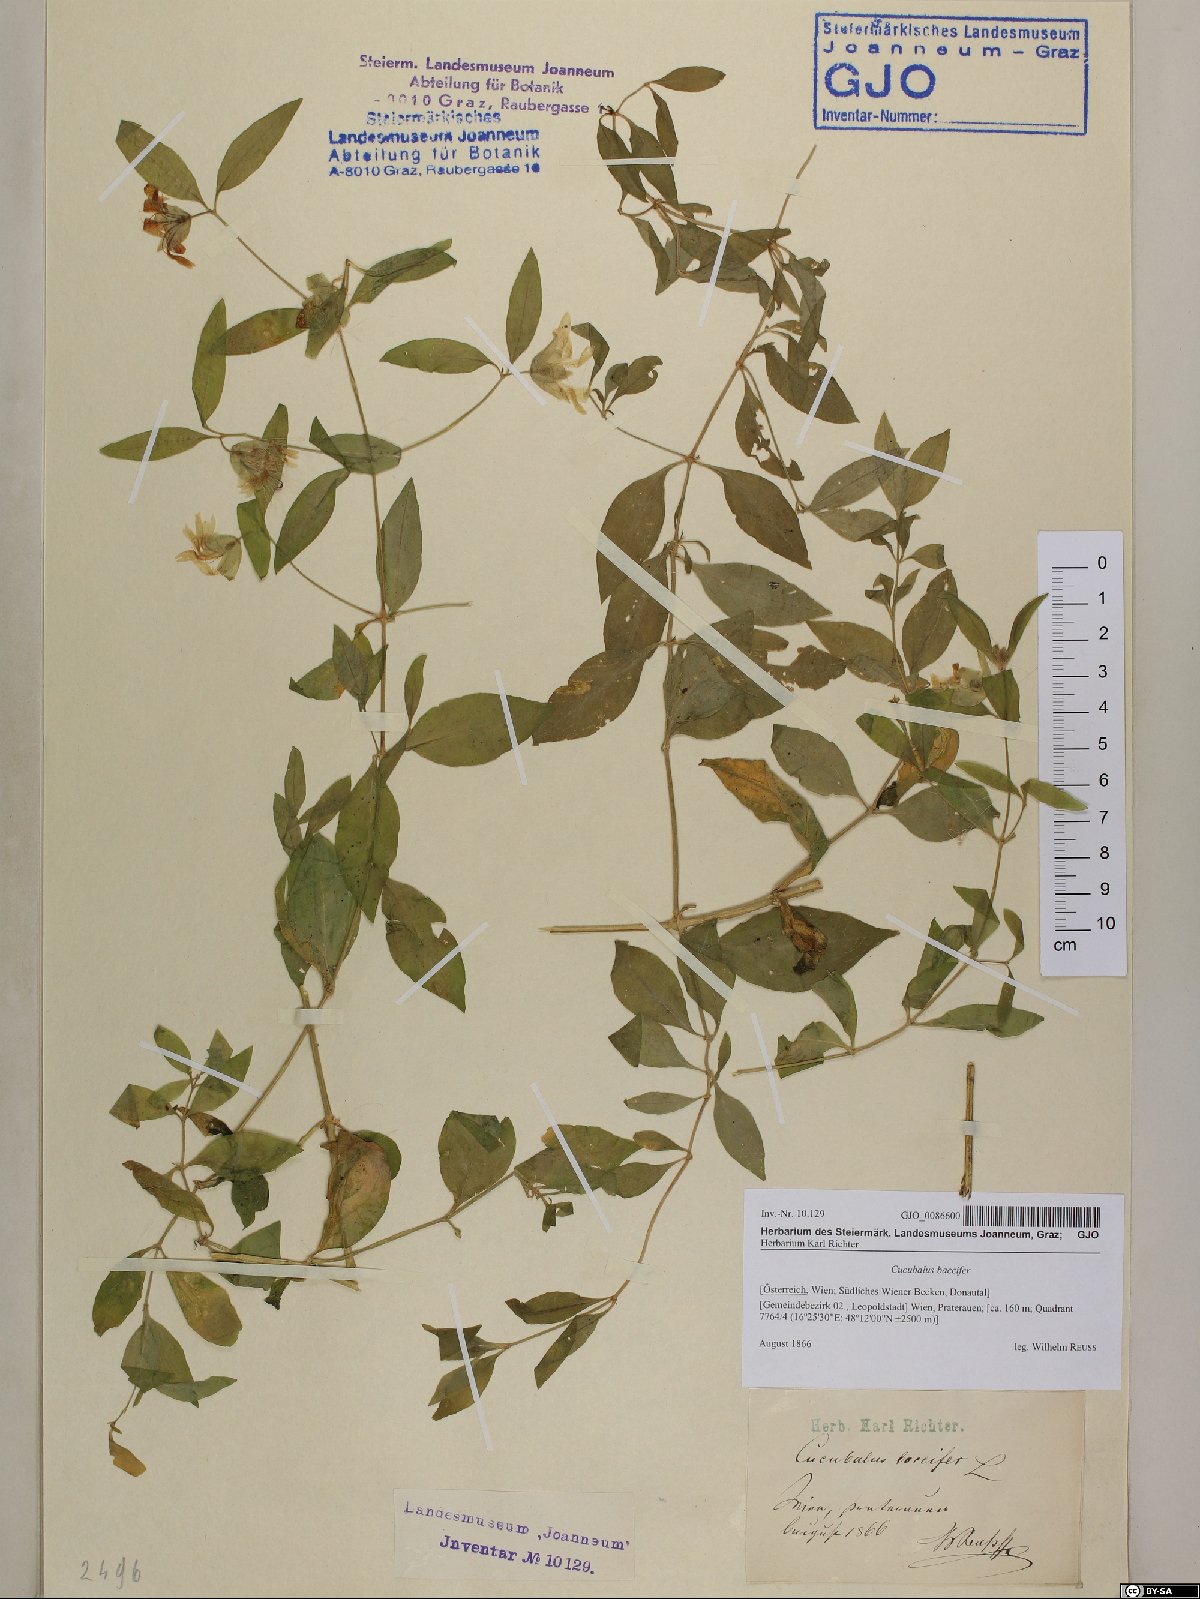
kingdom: Plantae
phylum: Tracheophyta
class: Magnoliopsida
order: Caryophyllales
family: Caryophyllaceae
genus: Silene
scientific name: Silene baccifera
